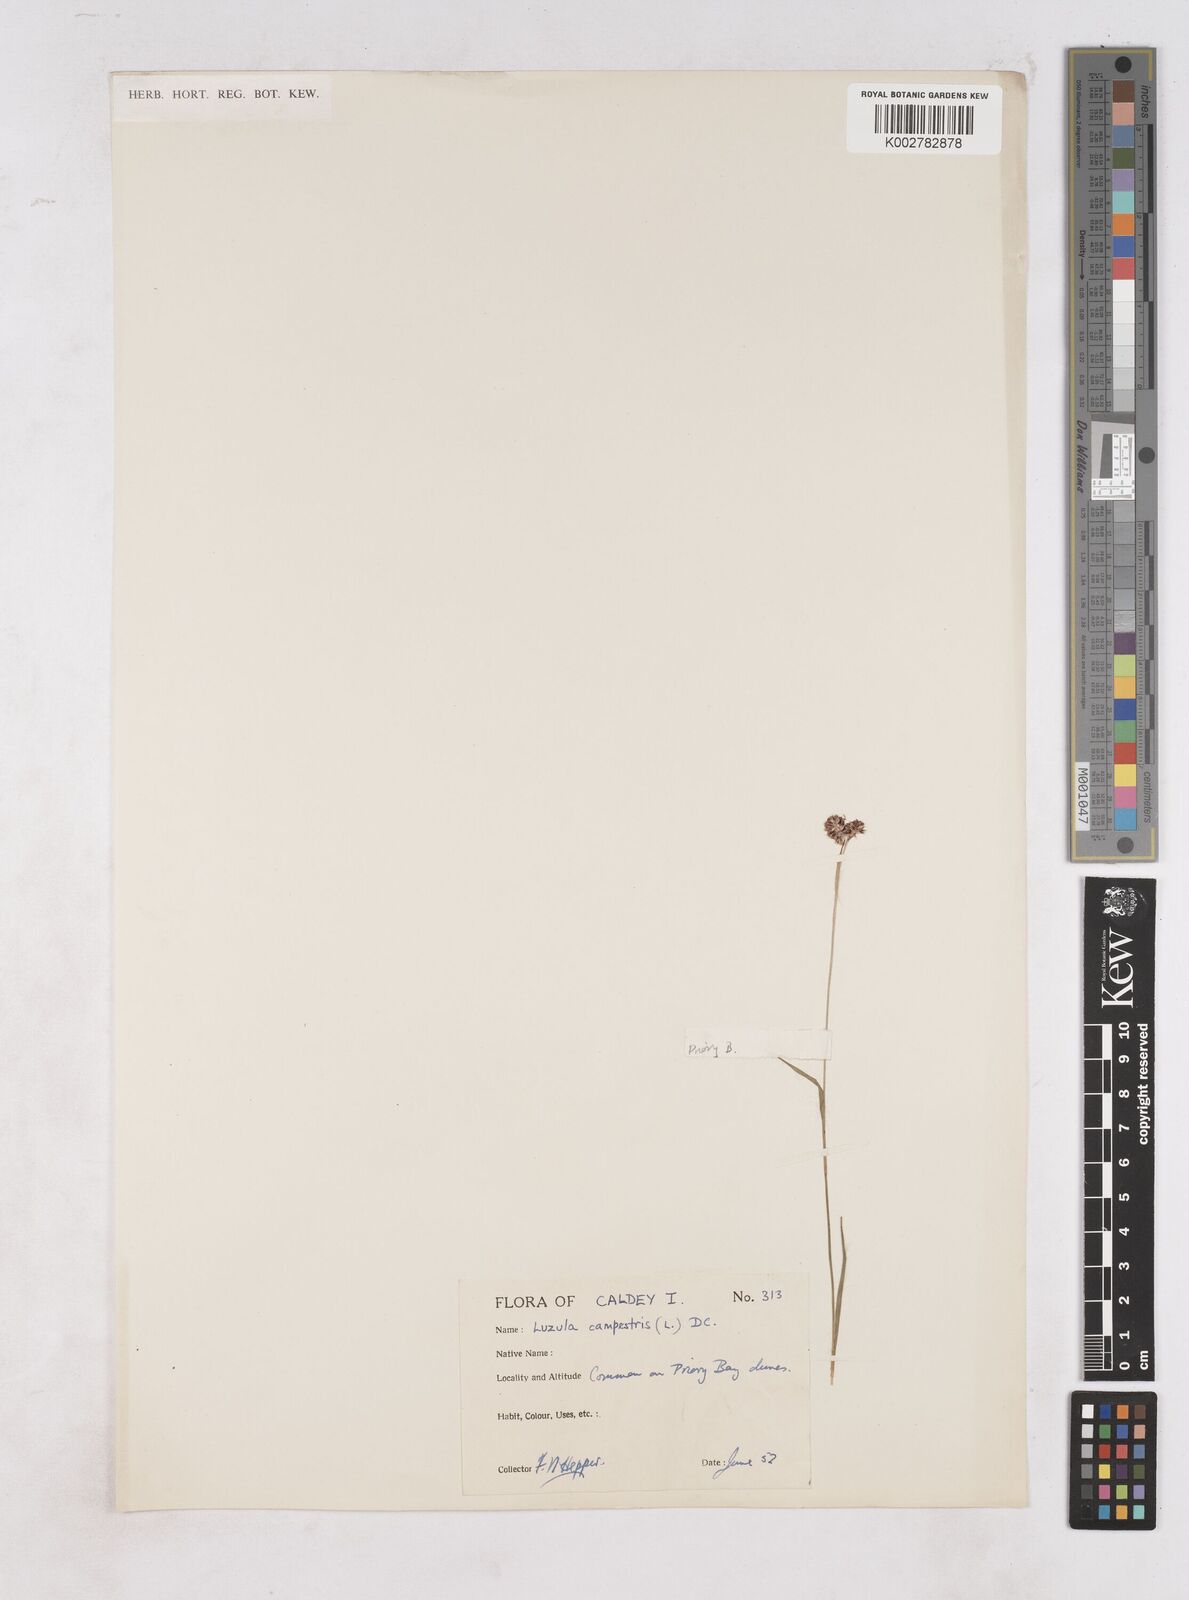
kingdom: Plantae
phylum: Tracheophyta
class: Liliopsida
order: Poales
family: Juncaceae
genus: Luzula
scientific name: Luzula campestris
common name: Field wood-rush
